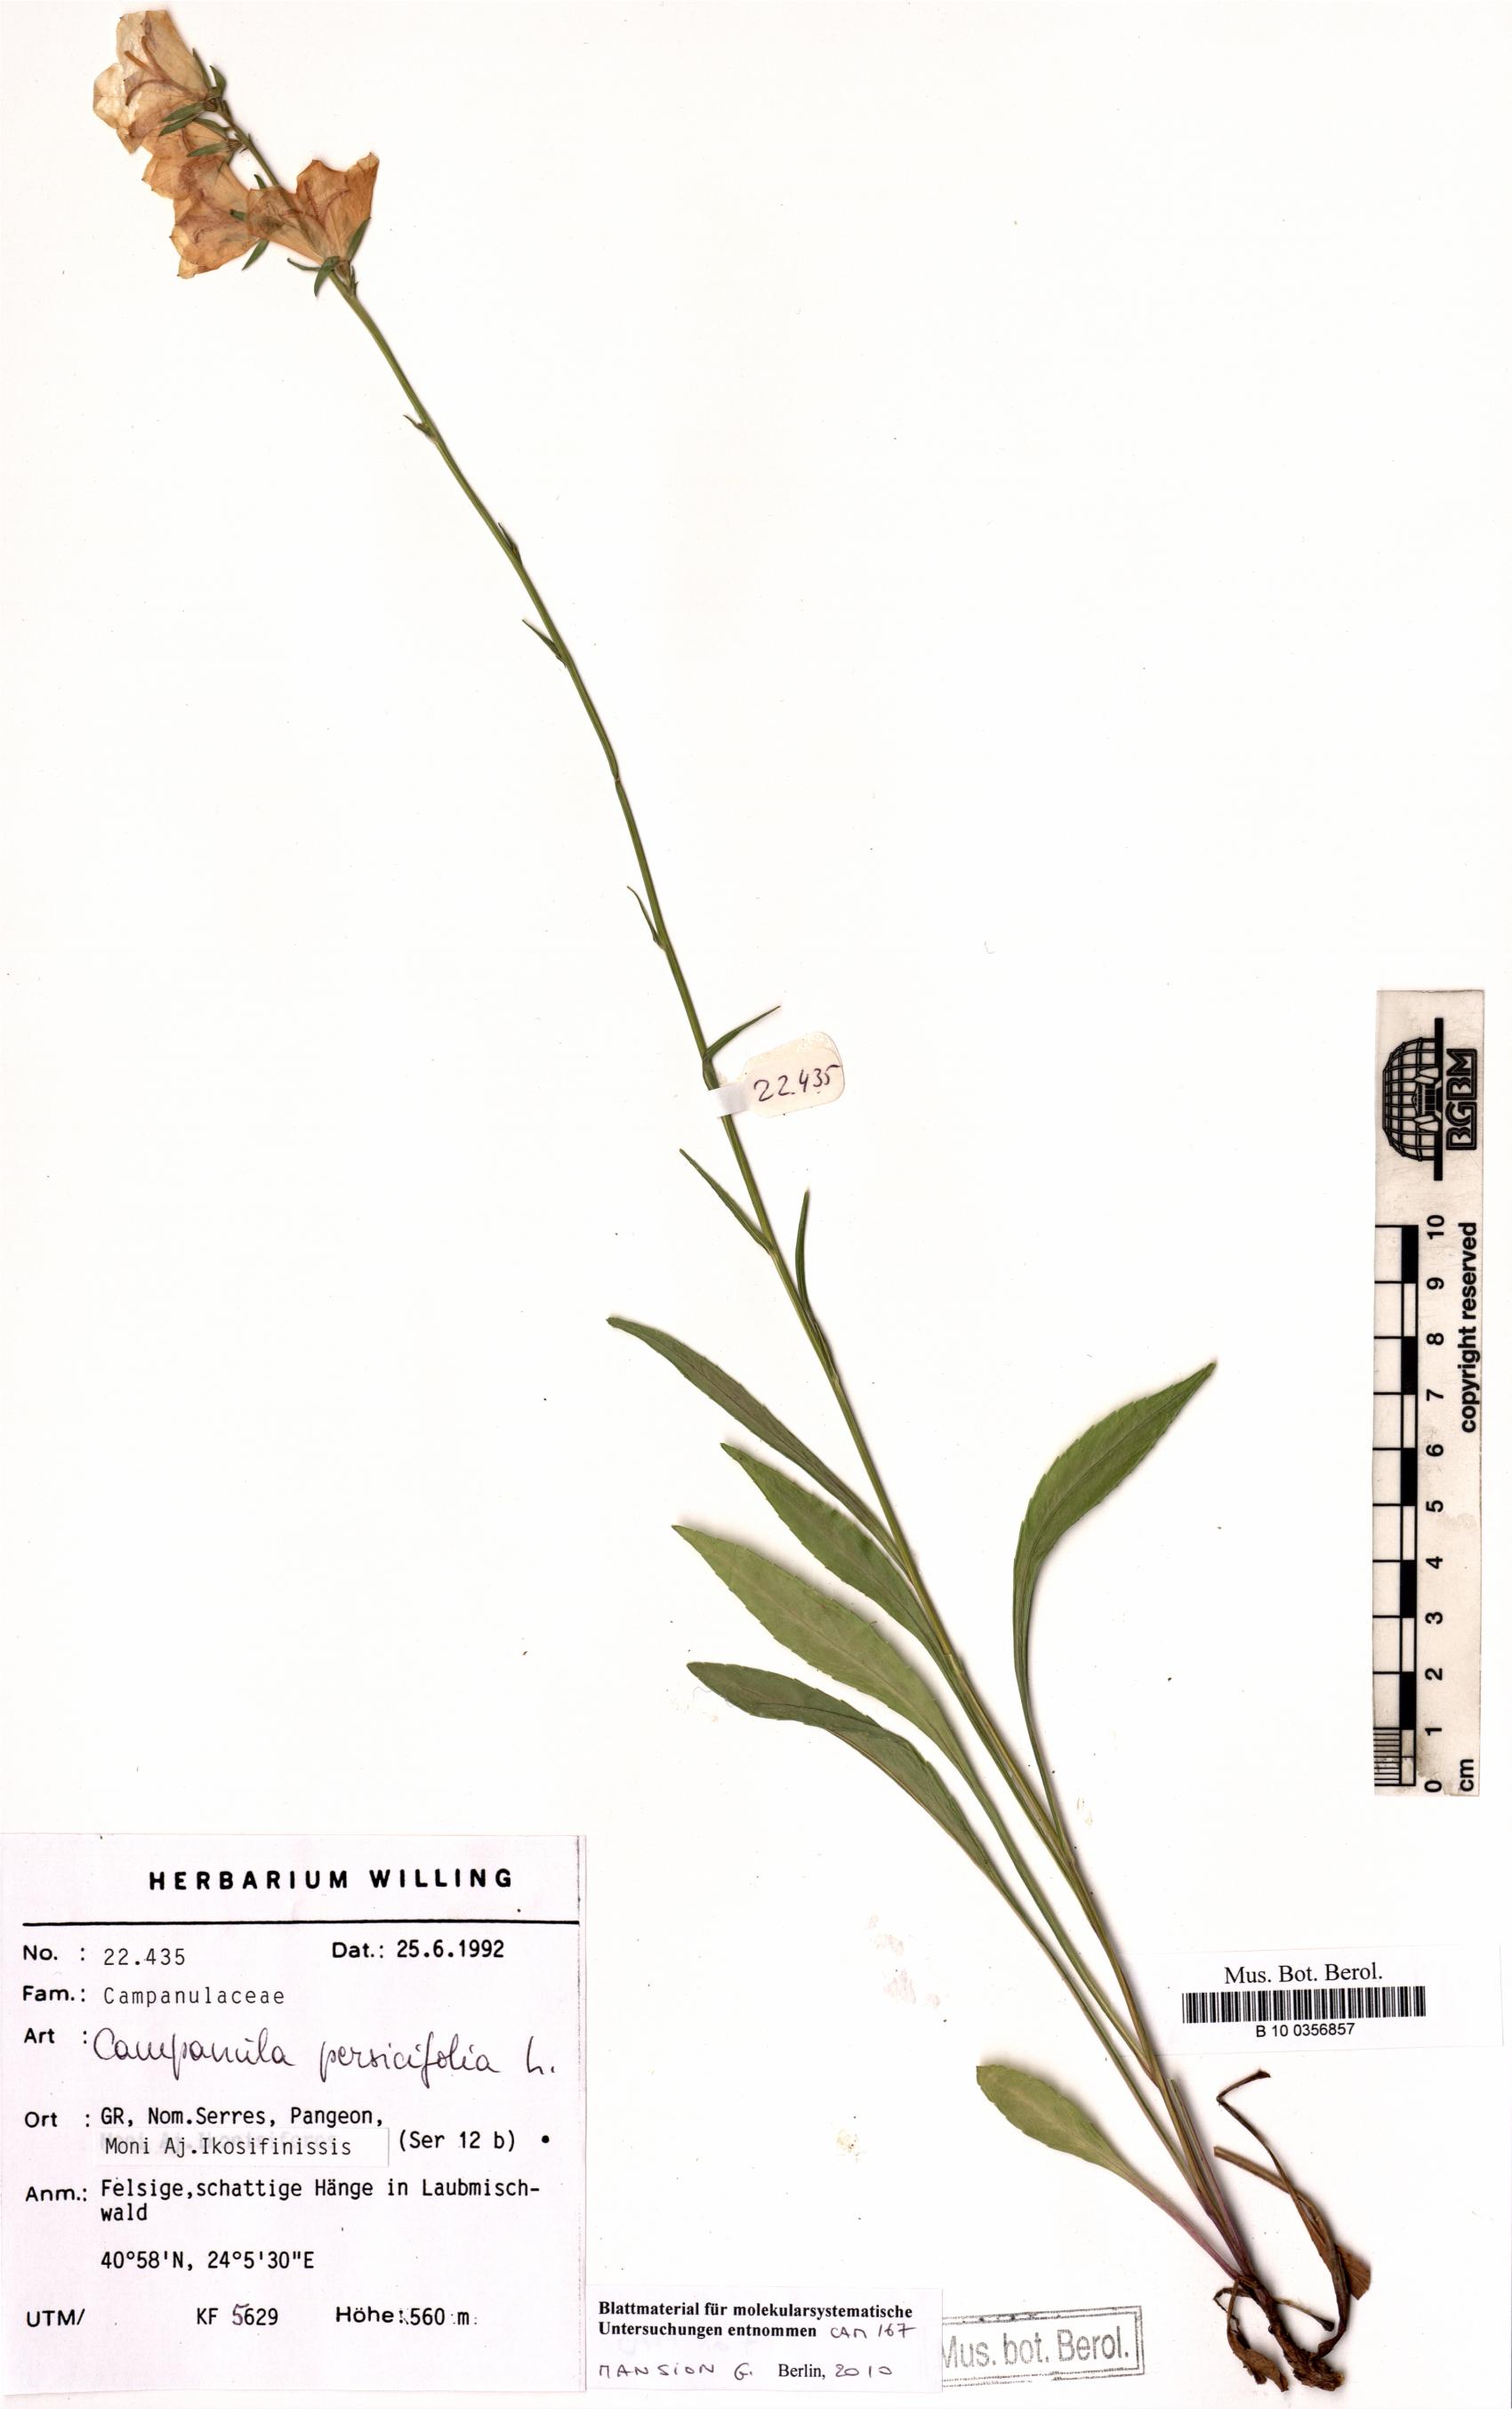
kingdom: Plantae
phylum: Tracheophyta
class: Magnoliopsida
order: Asterales
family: Campanulaceae
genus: Campanula
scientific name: Campanula persicifolia
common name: Peach-leaved bellflower
